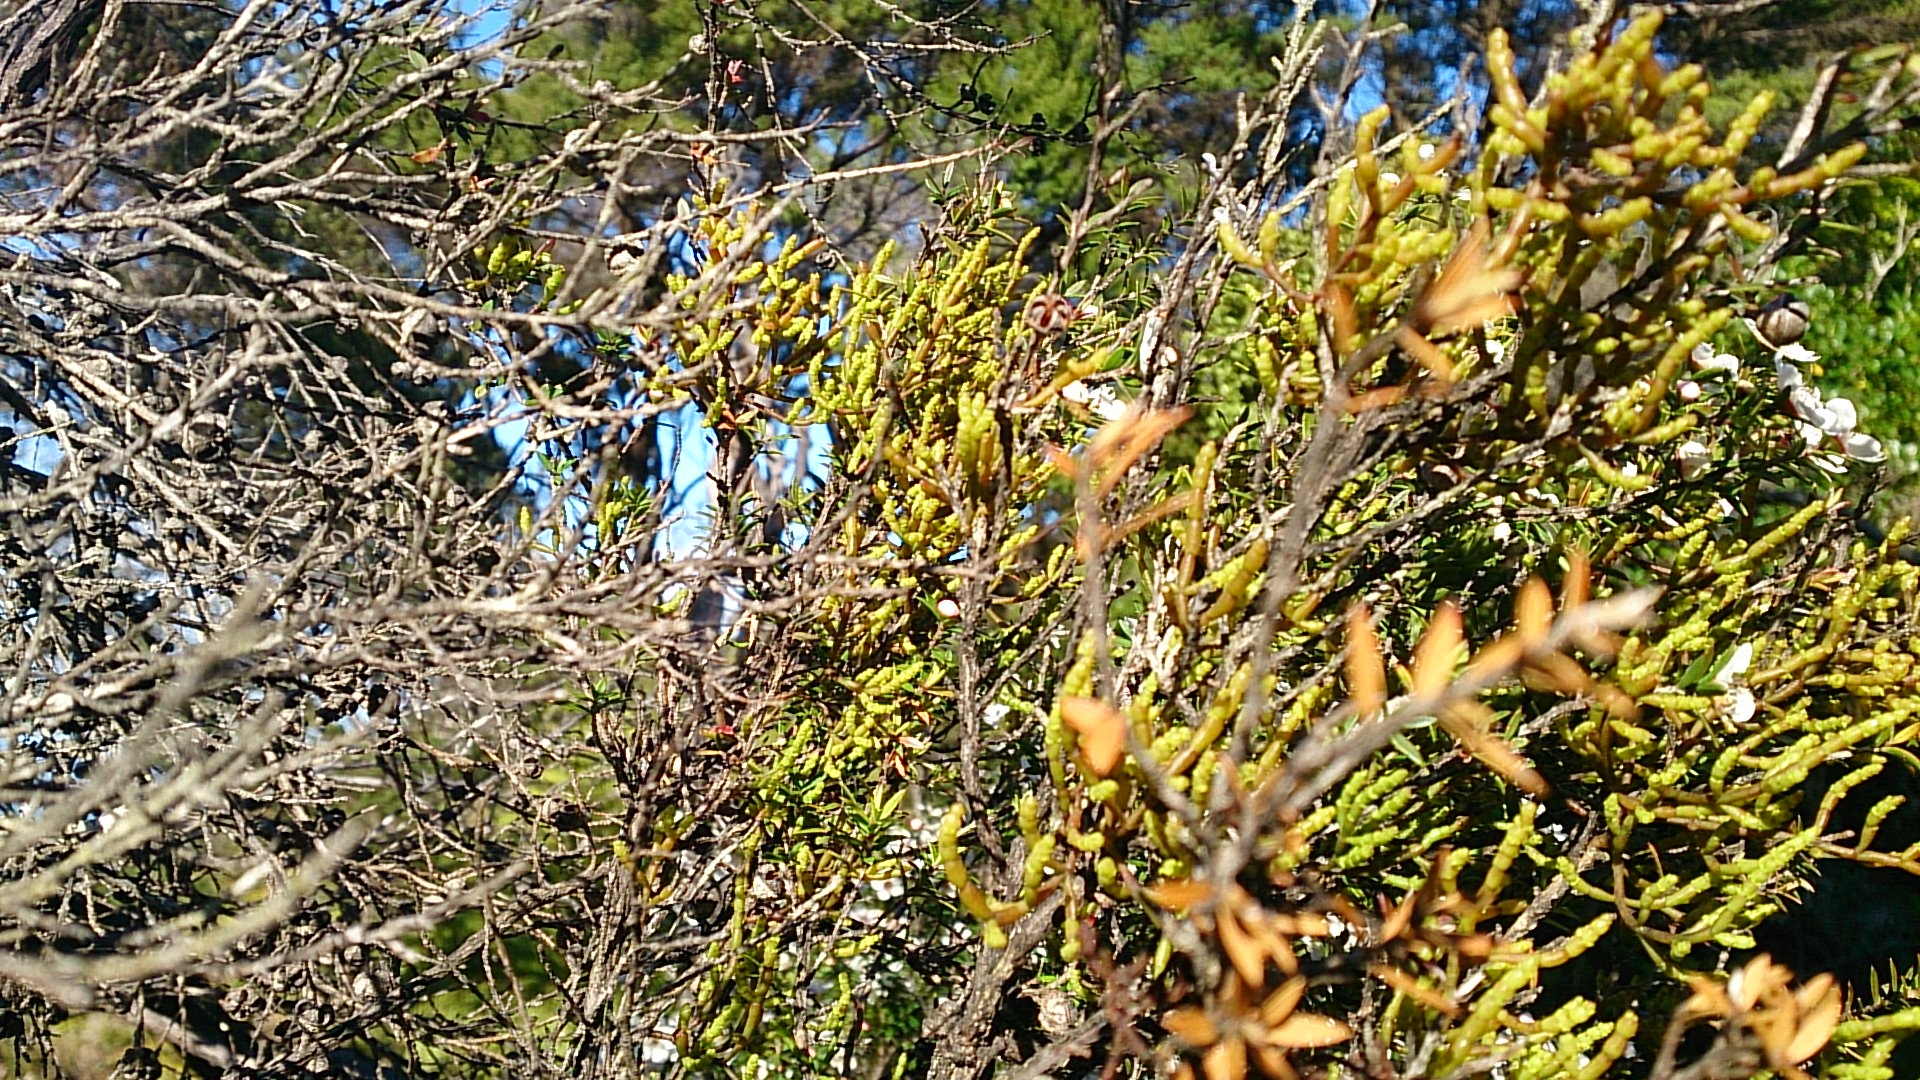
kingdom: Plantae
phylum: Tracheophyta
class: Magnoliopsida
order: Santalales
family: Viscaceae
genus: Korthalsella
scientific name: Korthalsella salicornioides
